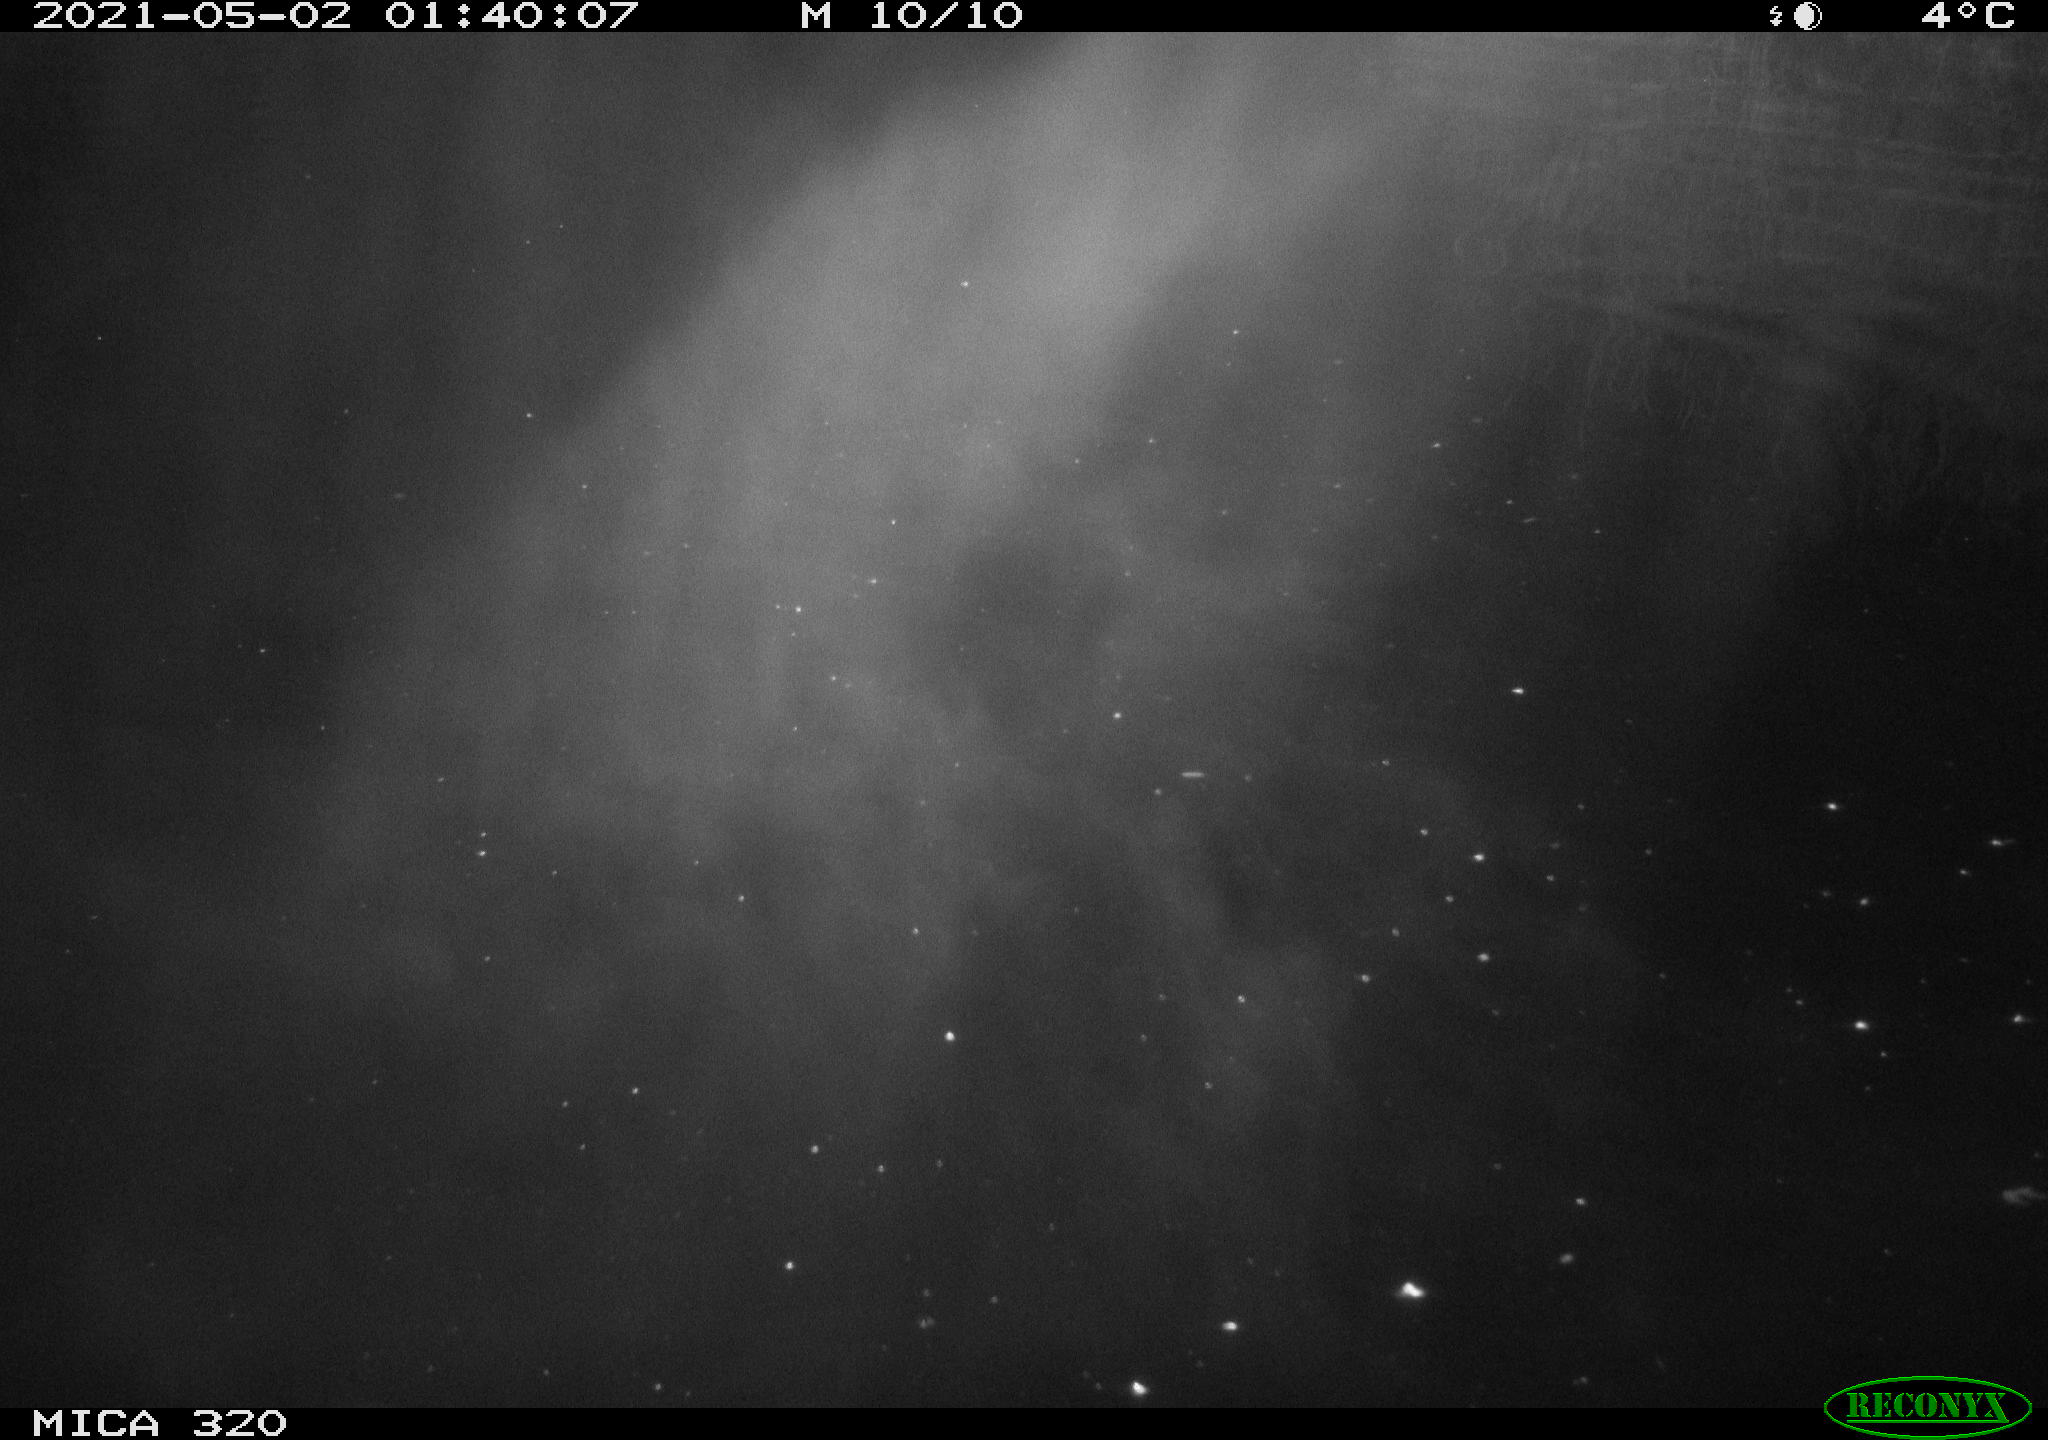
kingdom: Animalia
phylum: Chordata
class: Aves
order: Anseriformes
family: Anatidae
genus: Anas
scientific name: Anas platyrhynchos
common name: Mallard
